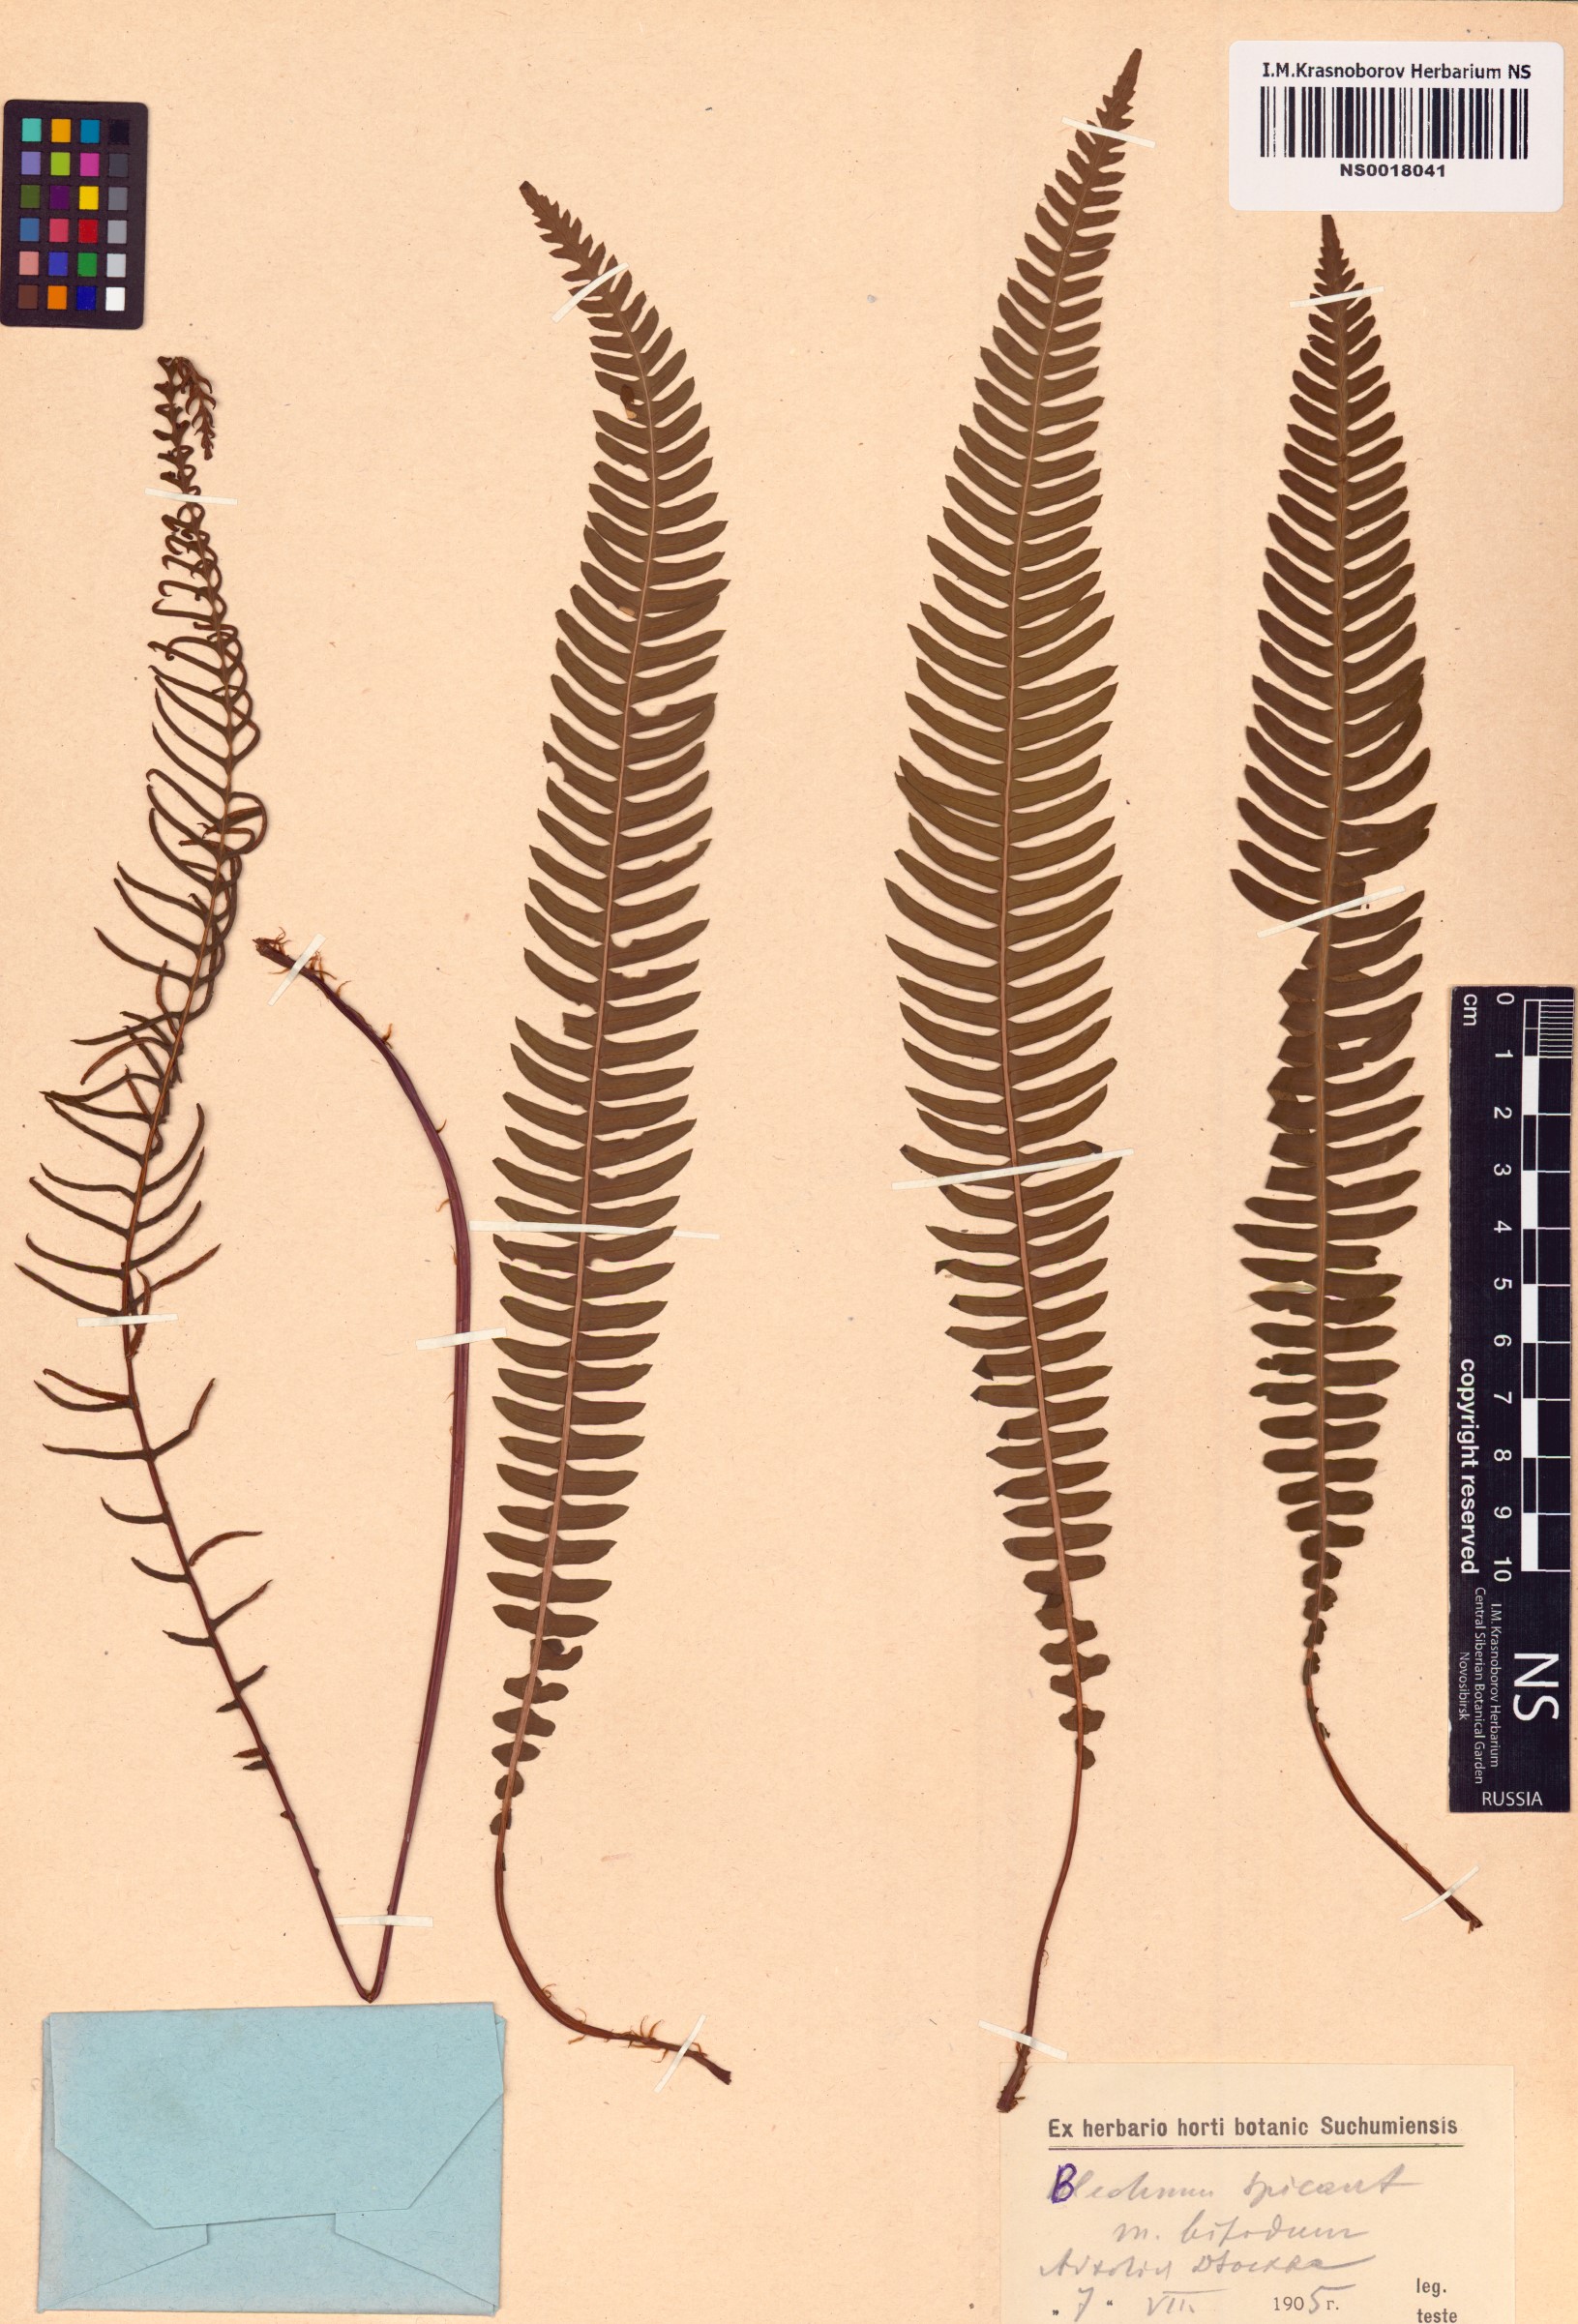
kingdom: Plantae
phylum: Tracheophyta
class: Polypodiopsida
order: Polypodiales
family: Blechnaceae
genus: Struthiopteris
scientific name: Struthiopteris spicant
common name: Deer fern
